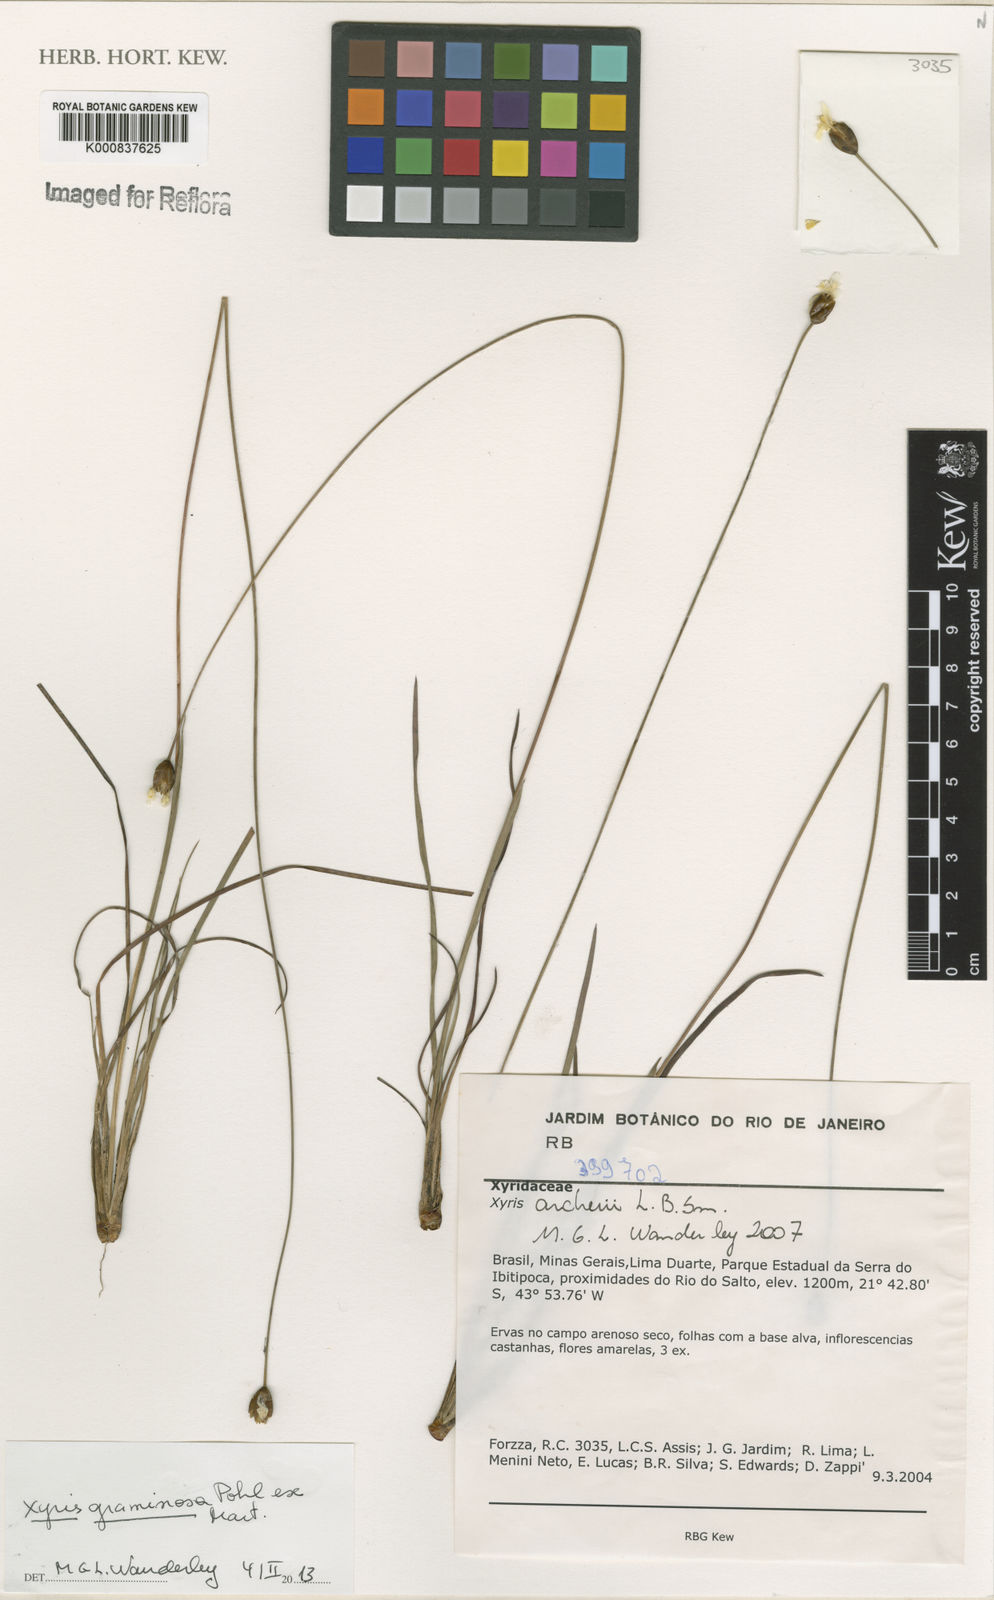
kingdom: Plantae
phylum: Tracheophyta
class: Liliopsida
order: Poales
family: Xyridaceae
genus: Xyris
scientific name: Xyris graminosa
